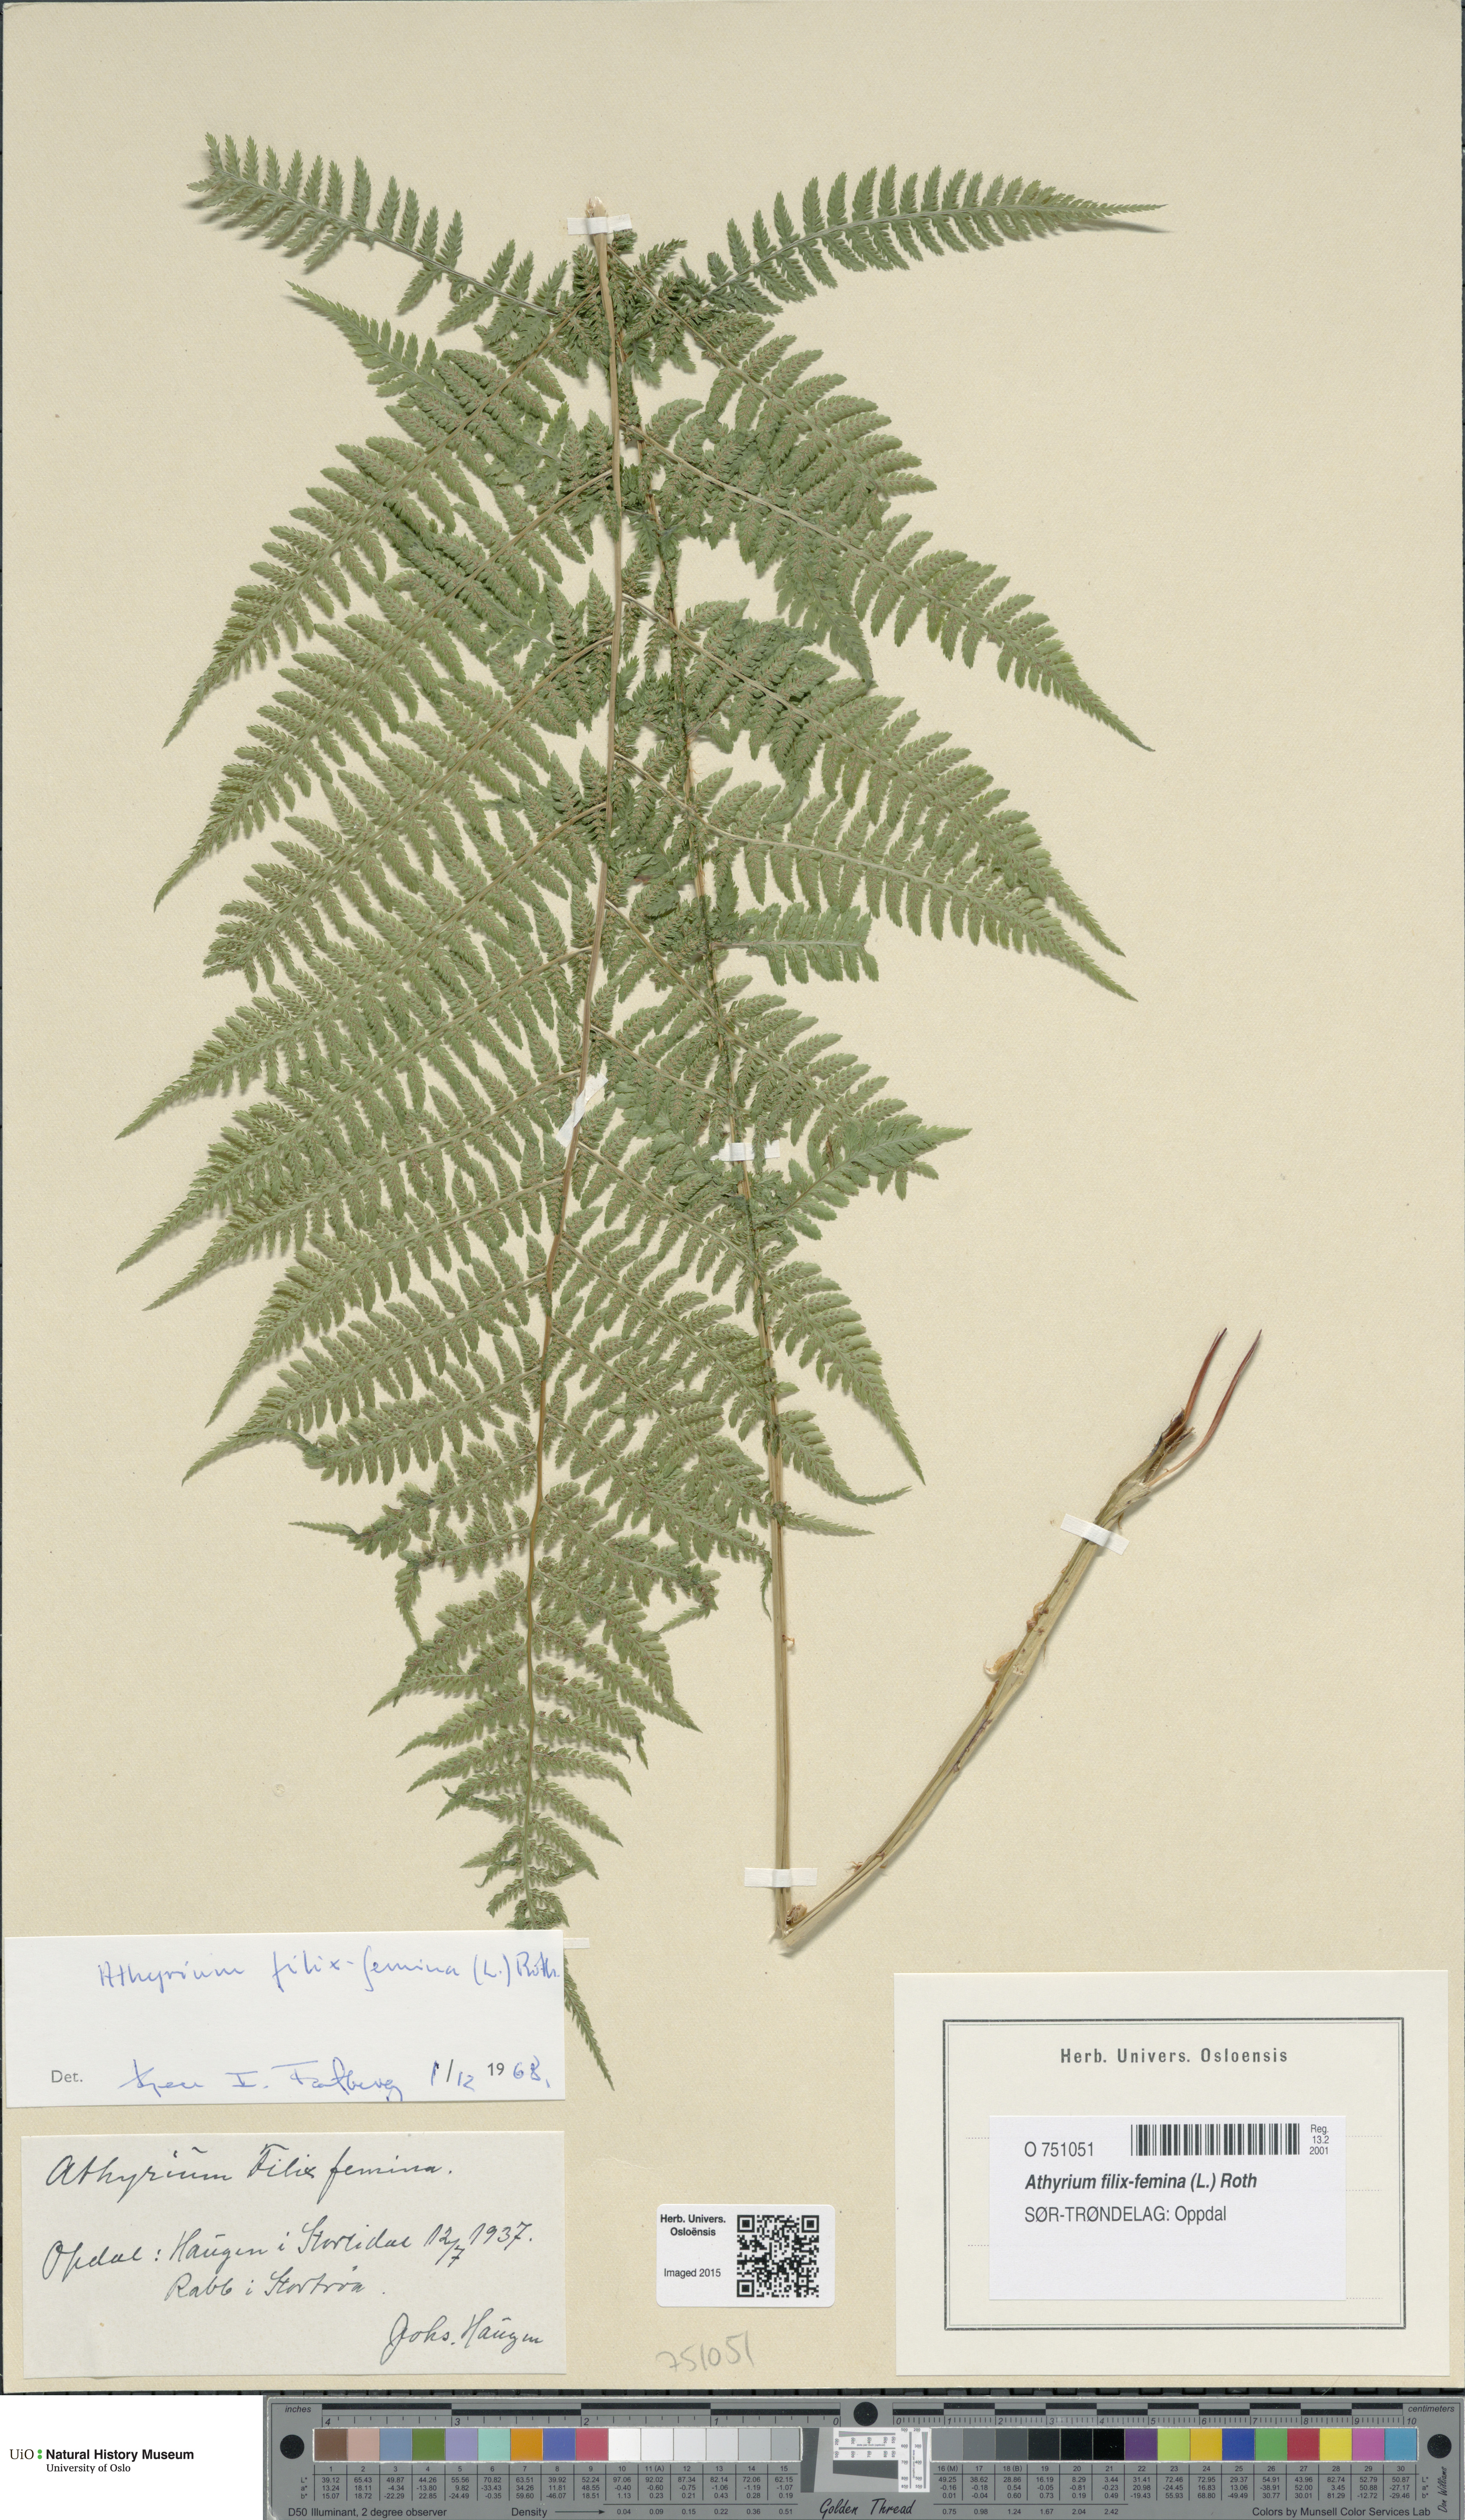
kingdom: Plantae
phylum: Tracheophyta
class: Polypodiopsida
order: Polypodiales
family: Athyriaceae
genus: Athyrium
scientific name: Athyrium filix-femina
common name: Lady fern
